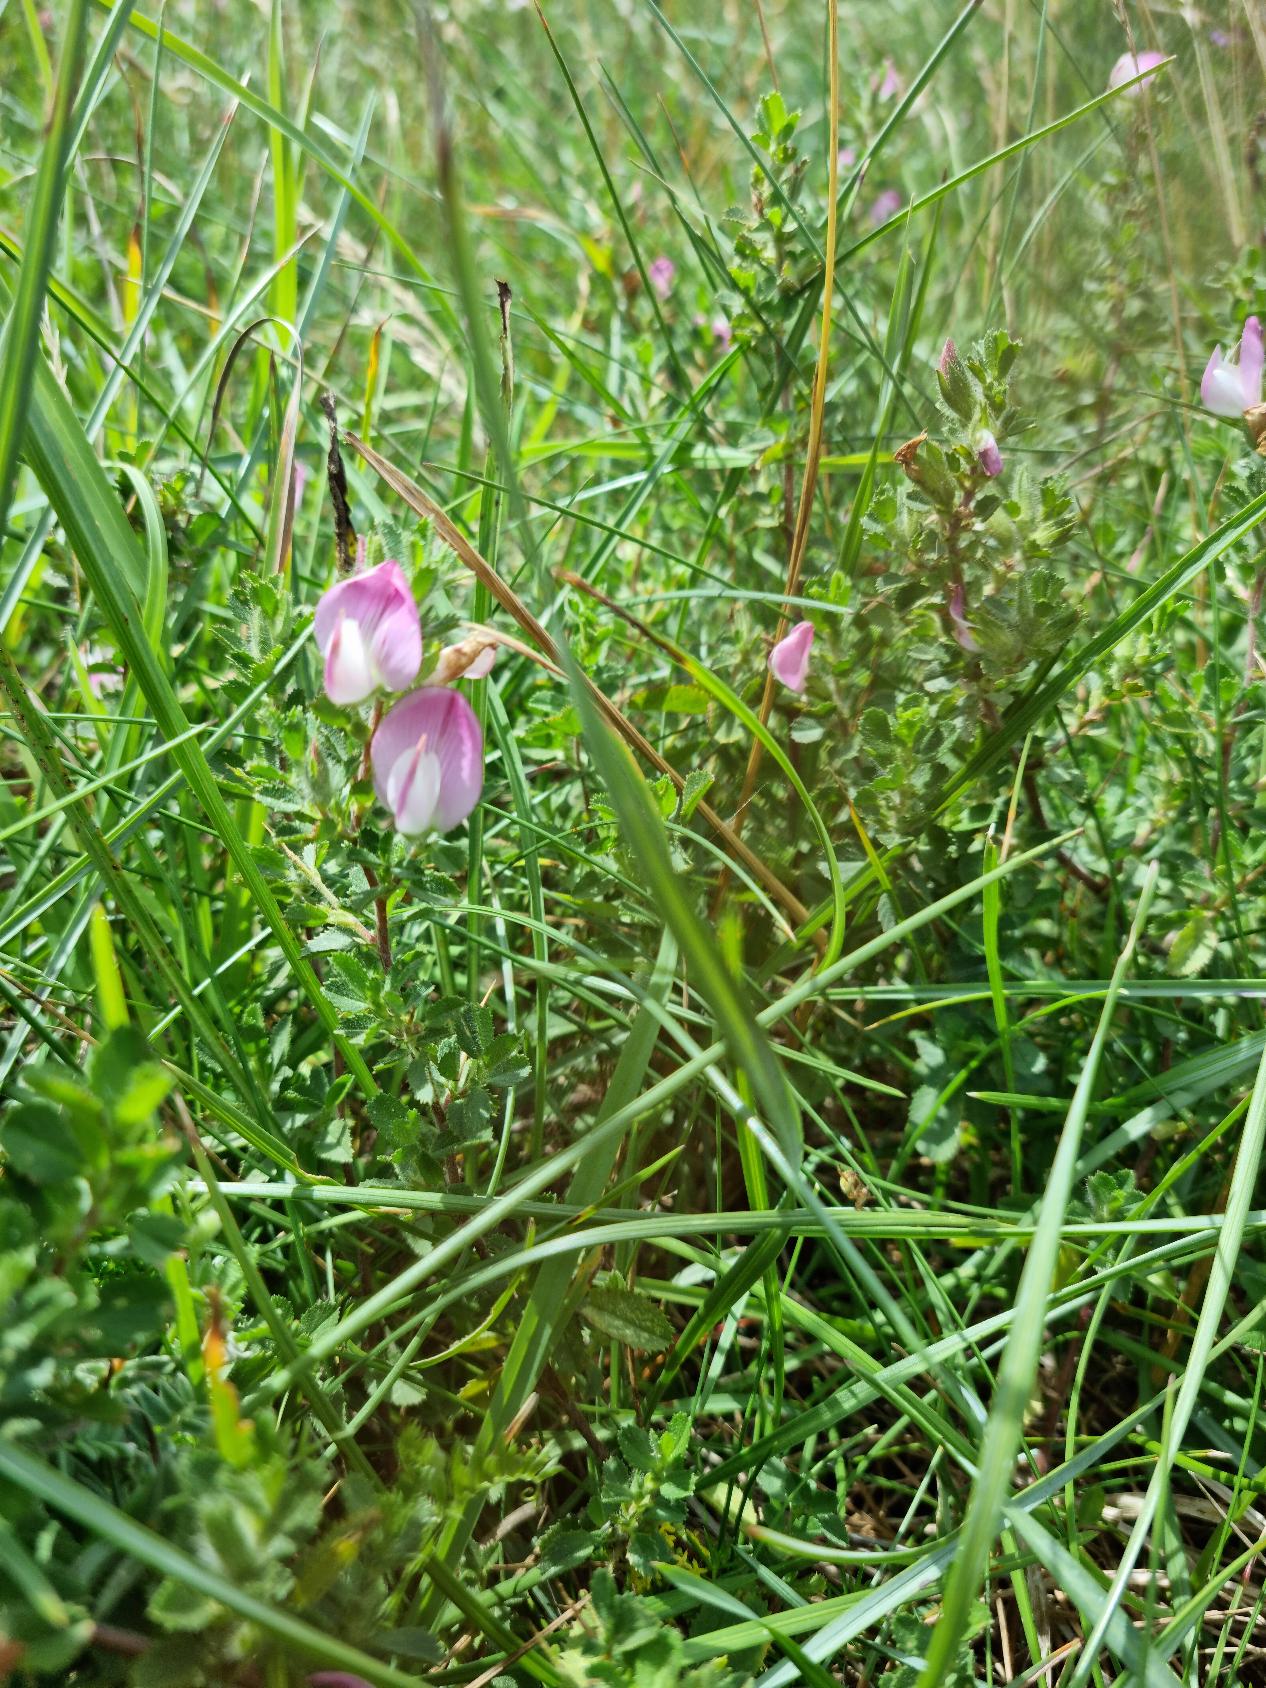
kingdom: Plantae
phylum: Tracheophyta
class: Magnoliopsida
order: Fabales
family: Fabaceae
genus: Ononis
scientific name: Ononis spinosa
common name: Mark-krageklo
